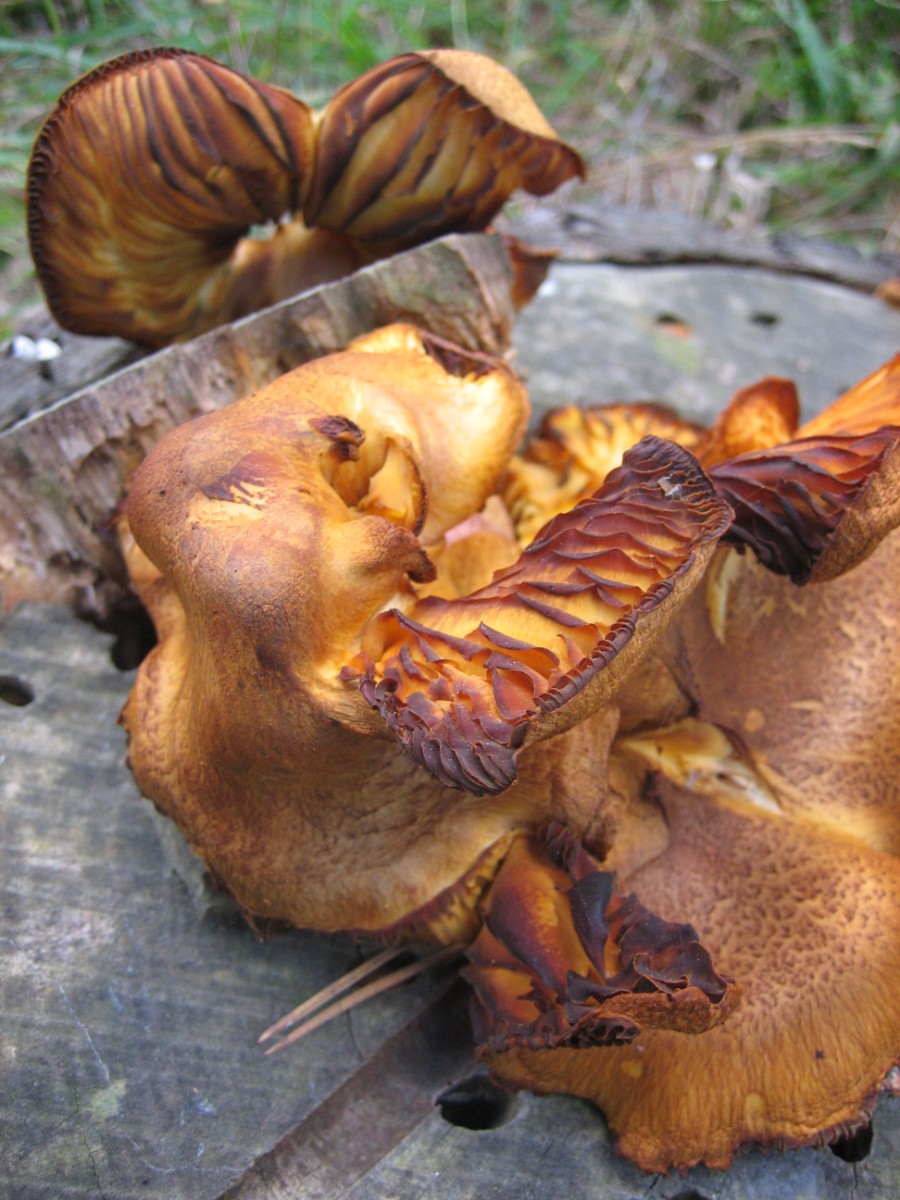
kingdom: Fungi
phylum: Basidiomycota
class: Agaricomycetes
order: Agaricales
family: Tricholomataceae
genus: Tricholomopsis
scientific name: Tricholomopsis rutilans
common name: purpur-væbnerhat
